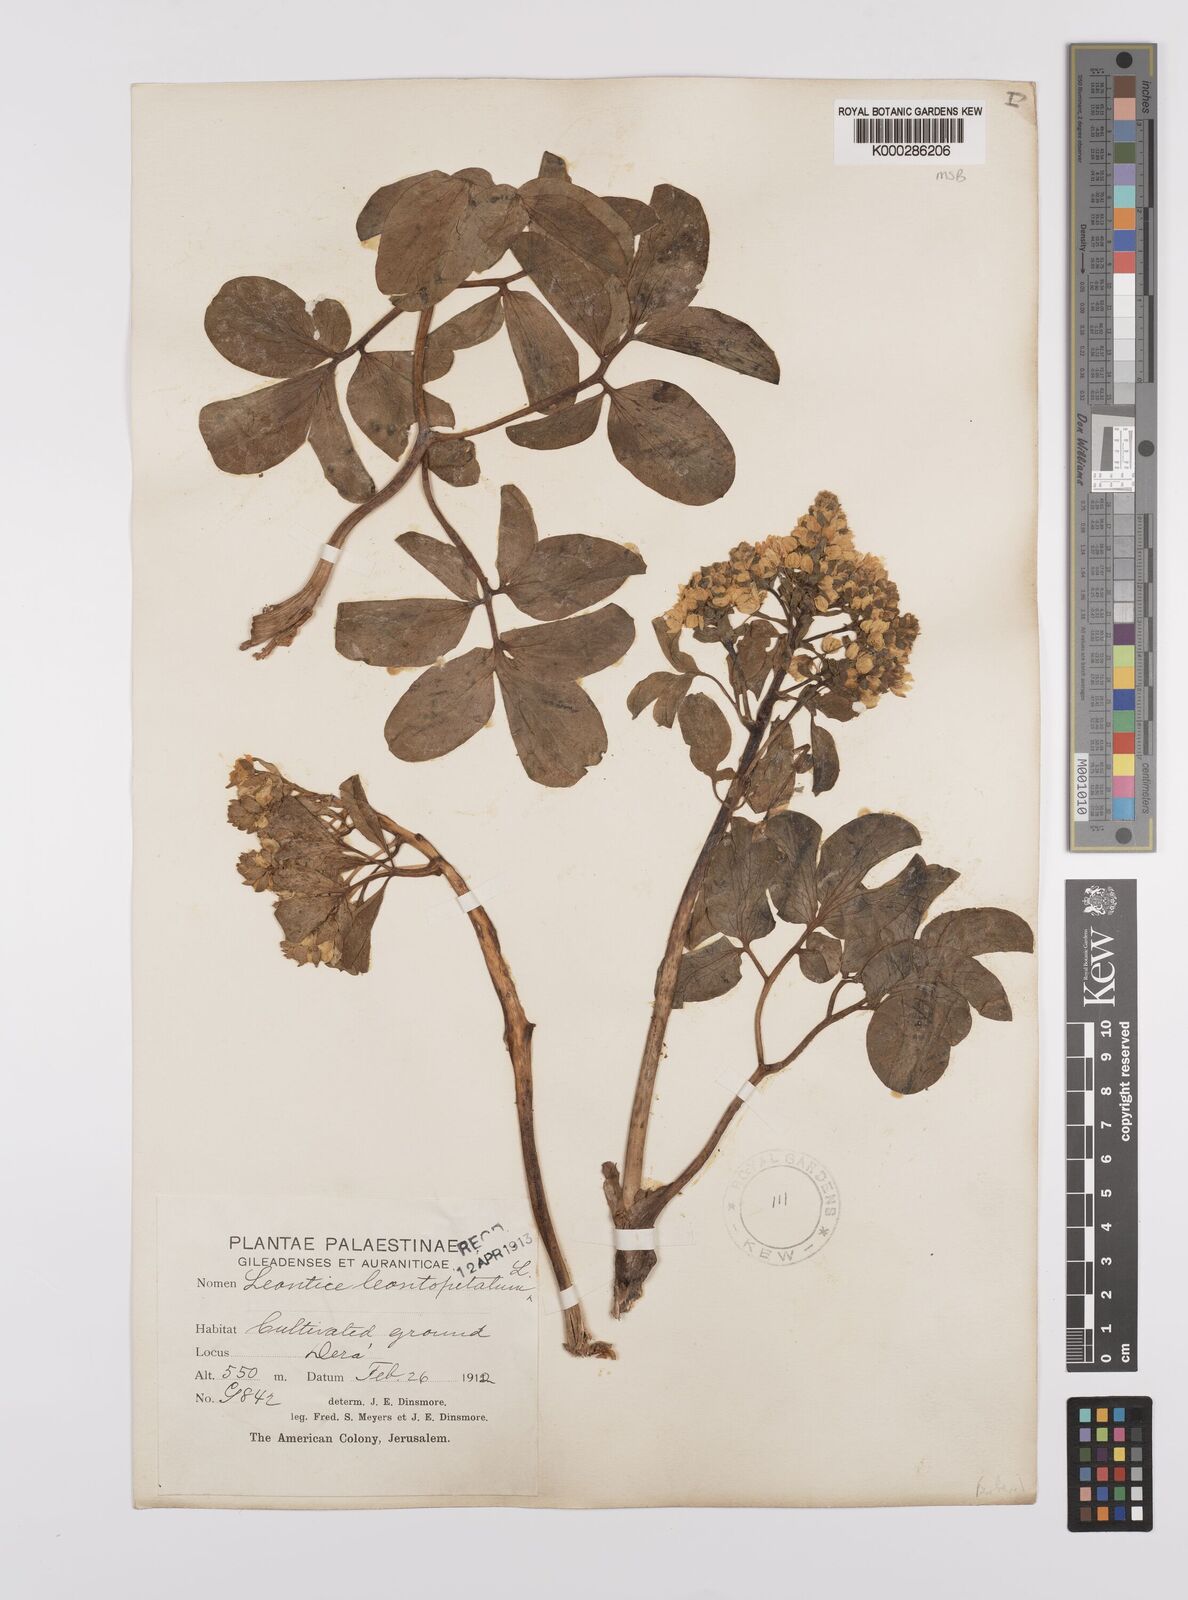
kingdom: Plantae
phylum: Tracheophyta
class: Magnoliopsida
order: Ranunculales
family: Berberidaceae
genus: Leontice
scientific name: Leontice leontopetalum
